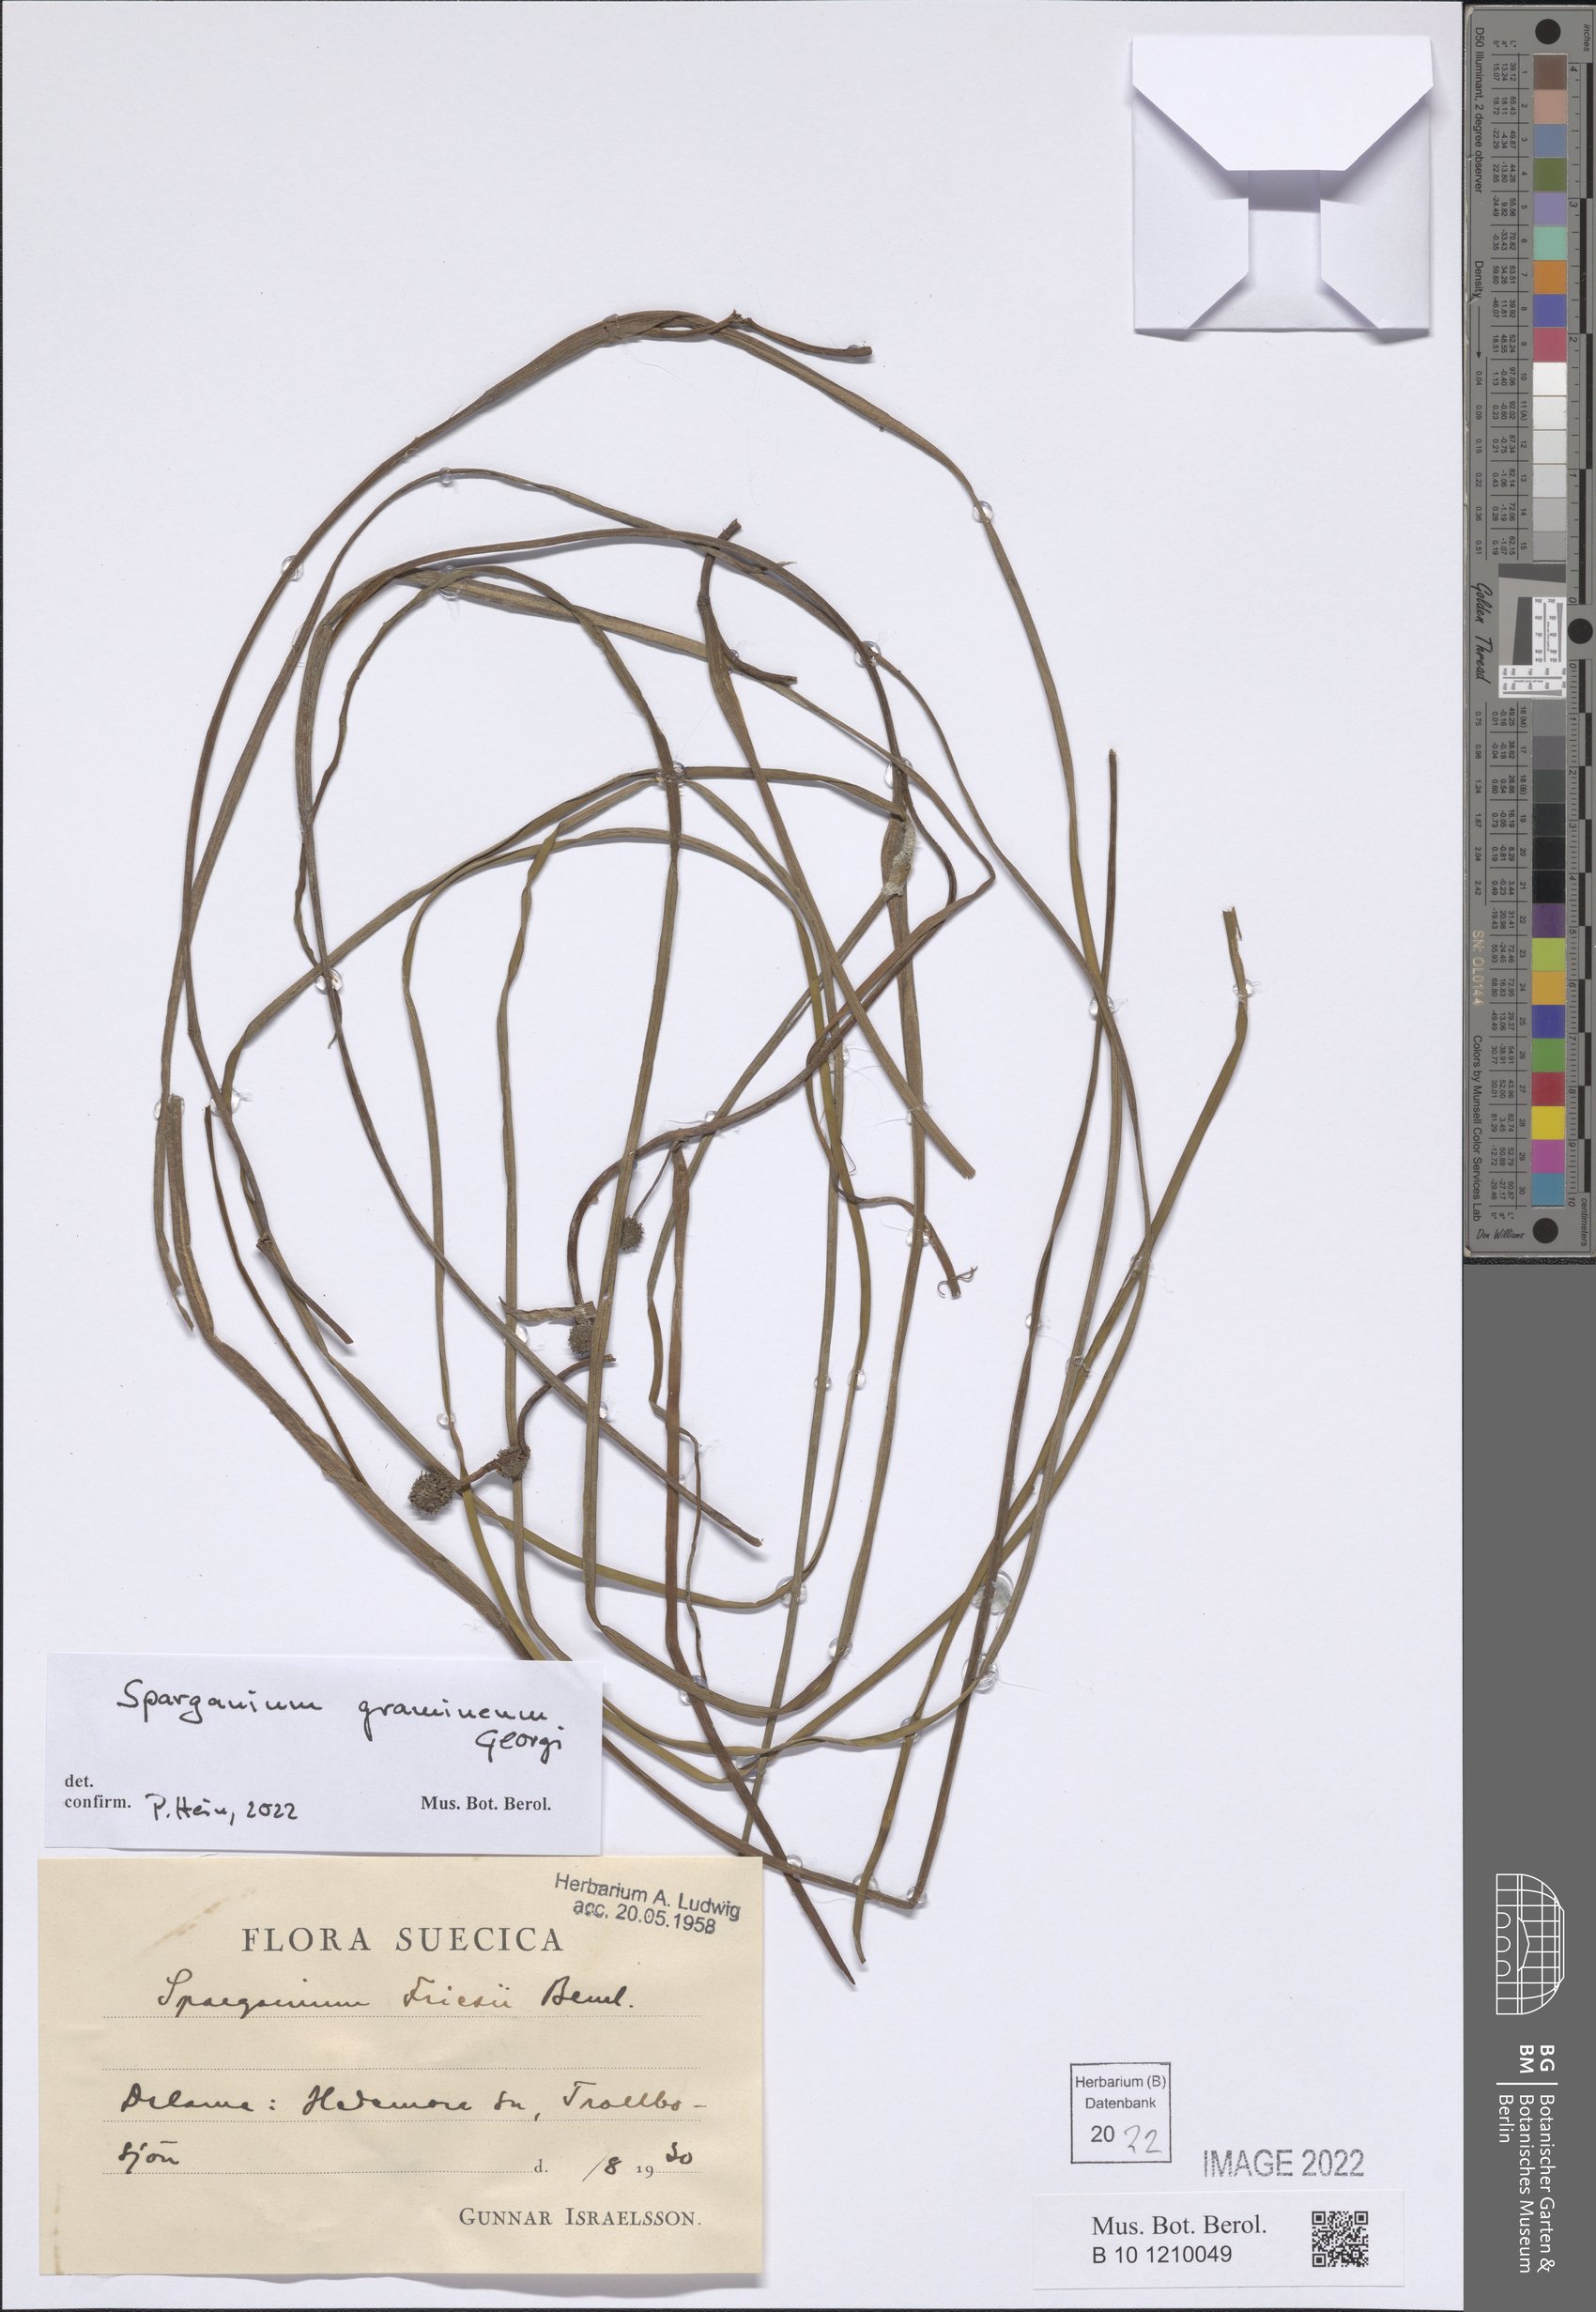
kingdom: Plantae
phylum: Tracheophyta
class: Liliopsida
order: Poales
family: Typhaceae
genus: Sparganium
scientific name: Sparganium gramineum
